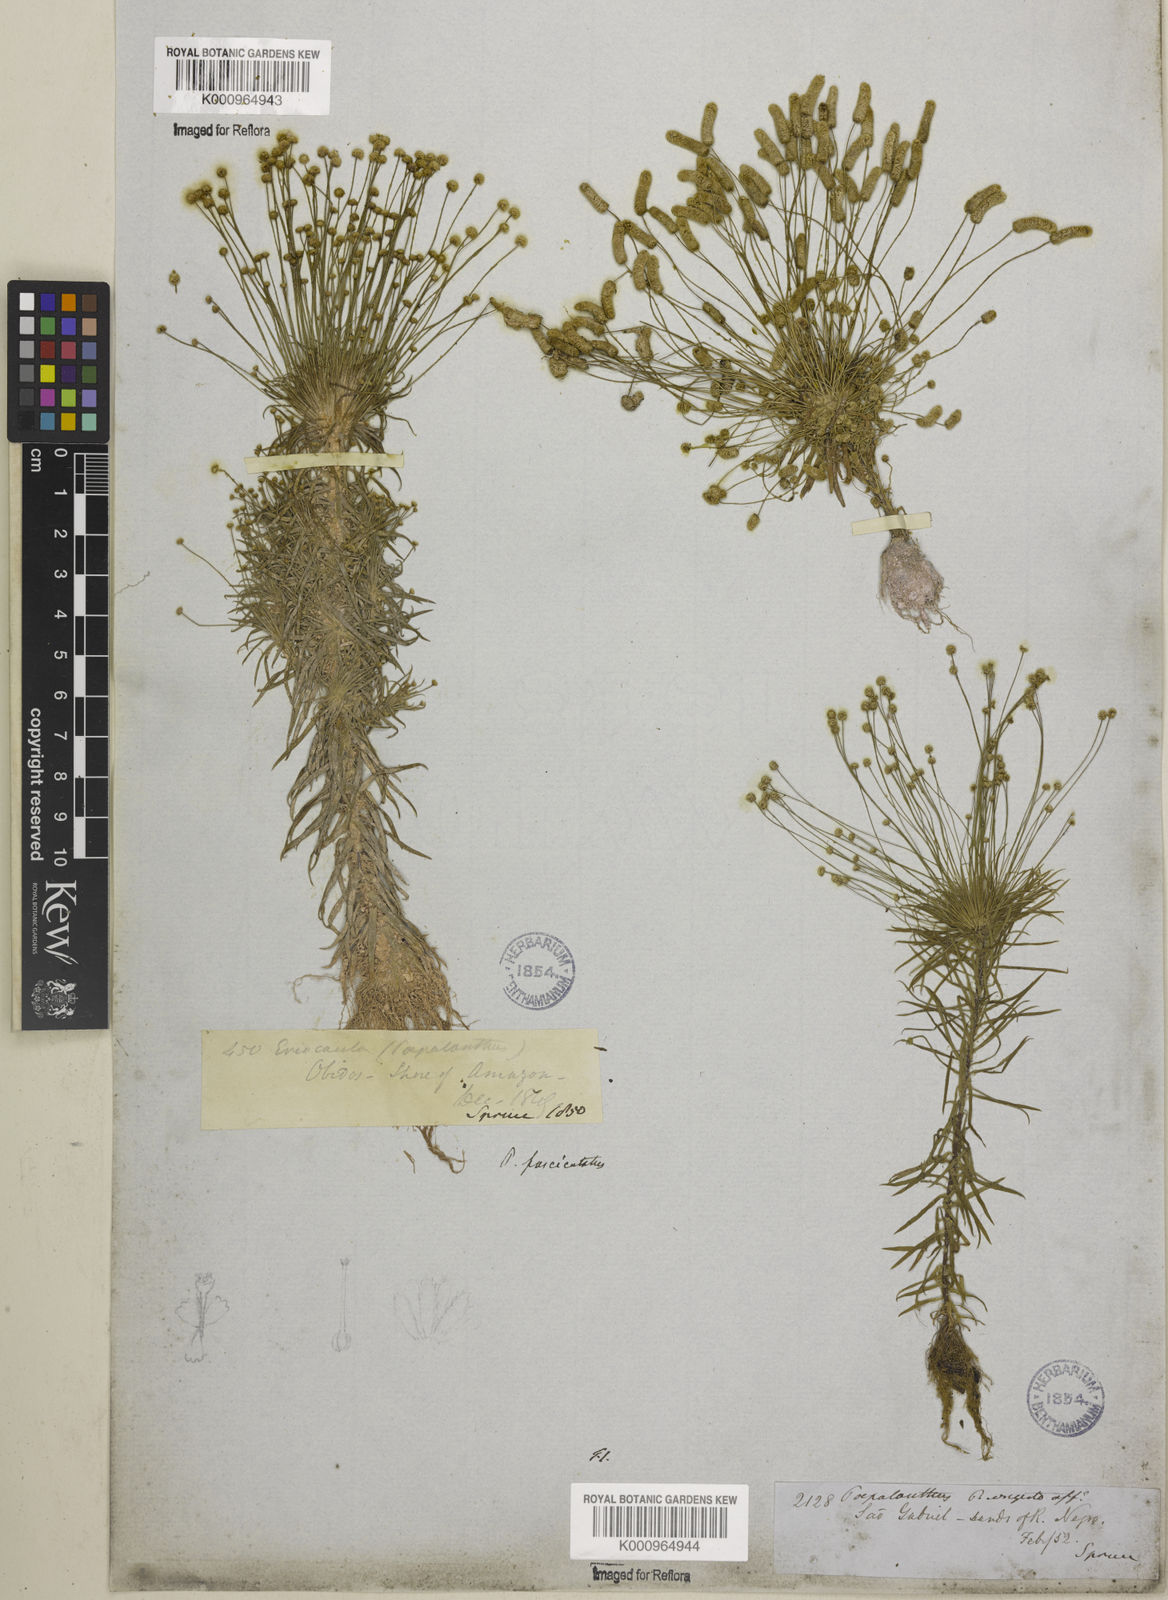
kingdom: Plantae
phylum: Tracheophyta
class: Liliopsida
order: Poales
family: Eriocaulaceae
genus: Paepalanthus
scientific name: Paepalanthus fasciculatus
